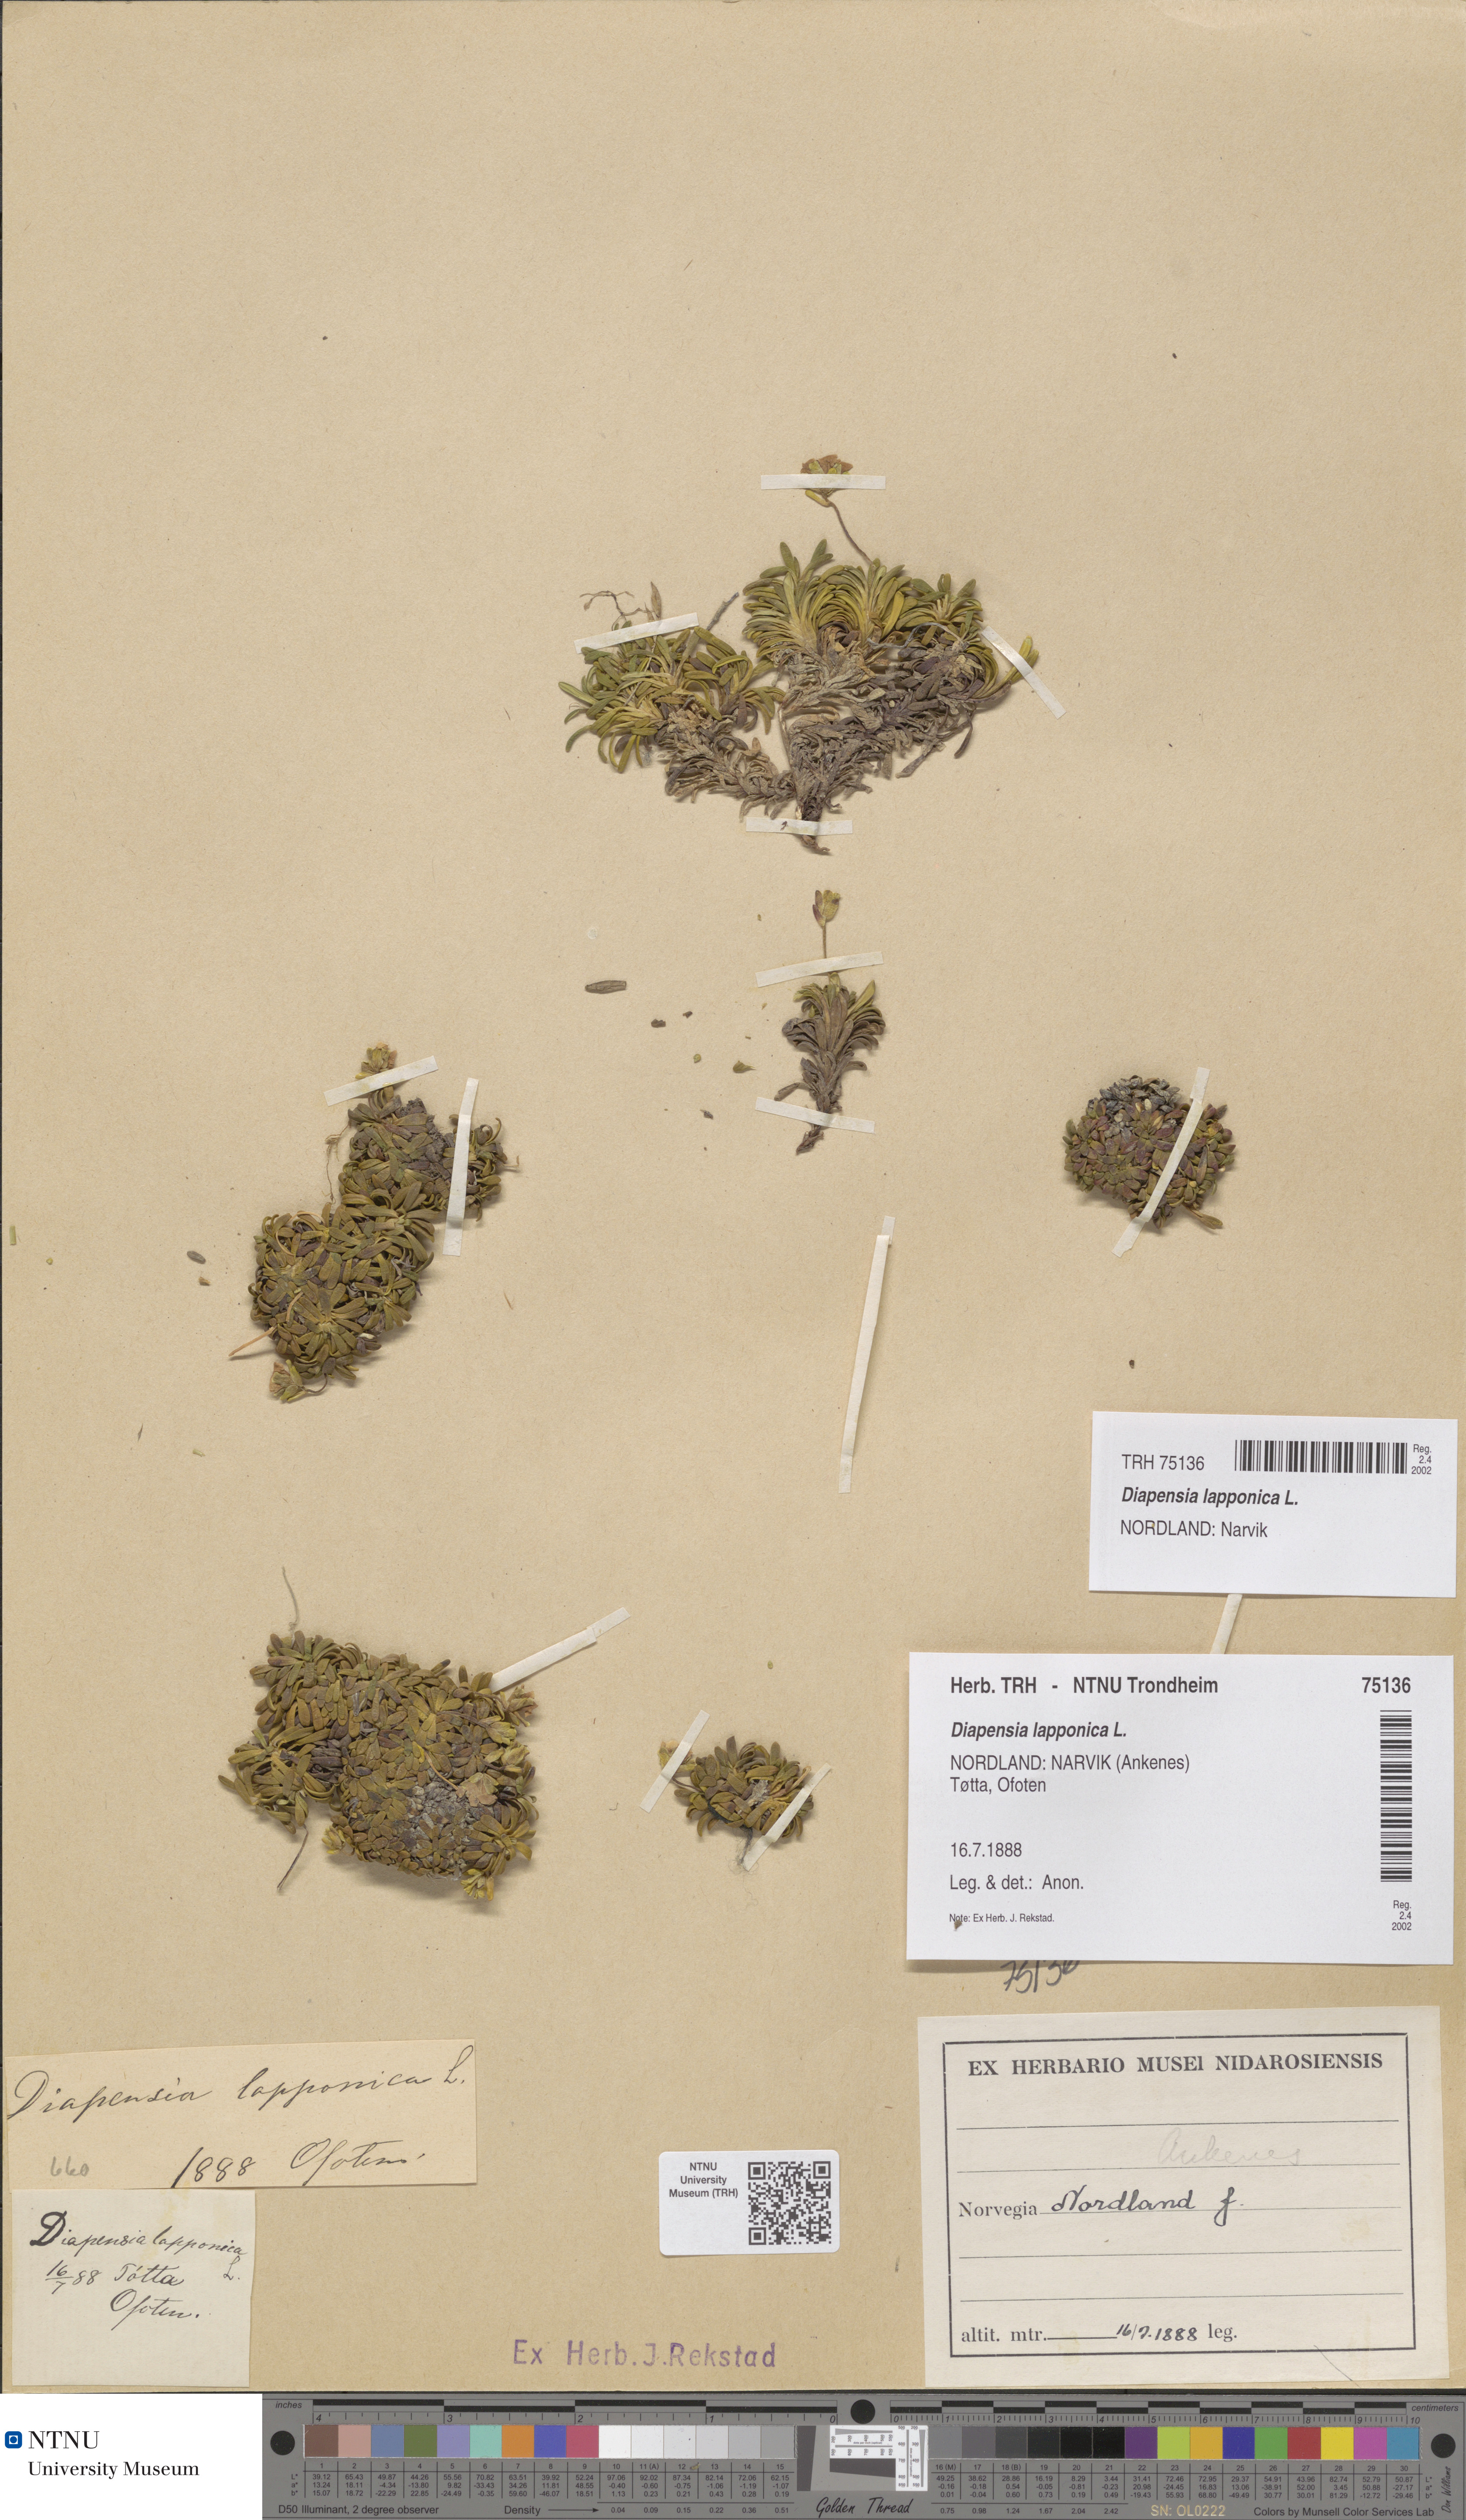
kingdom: Plantae
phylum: Tracheophyta
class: Magnoliopsida
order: Ericales
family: Diapensiaceae
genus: Diapensia
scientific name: Diapensia lapponica
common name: Diapensia
